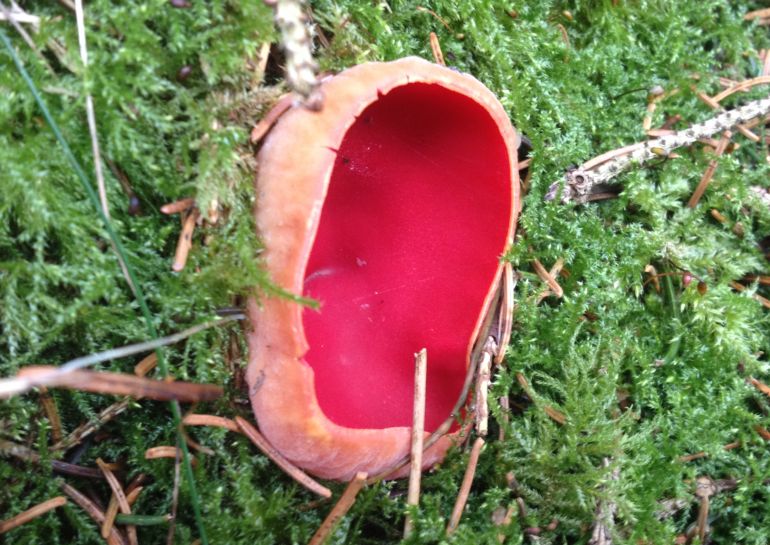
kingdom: Fungi
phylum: Ascomycota
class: Pezizomycetes
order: Pezizales
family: Sarcoscyphaceae
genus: Sarcoscypha
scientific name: Sarcoscypha austriaca
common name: krølhåret pragtbæger
